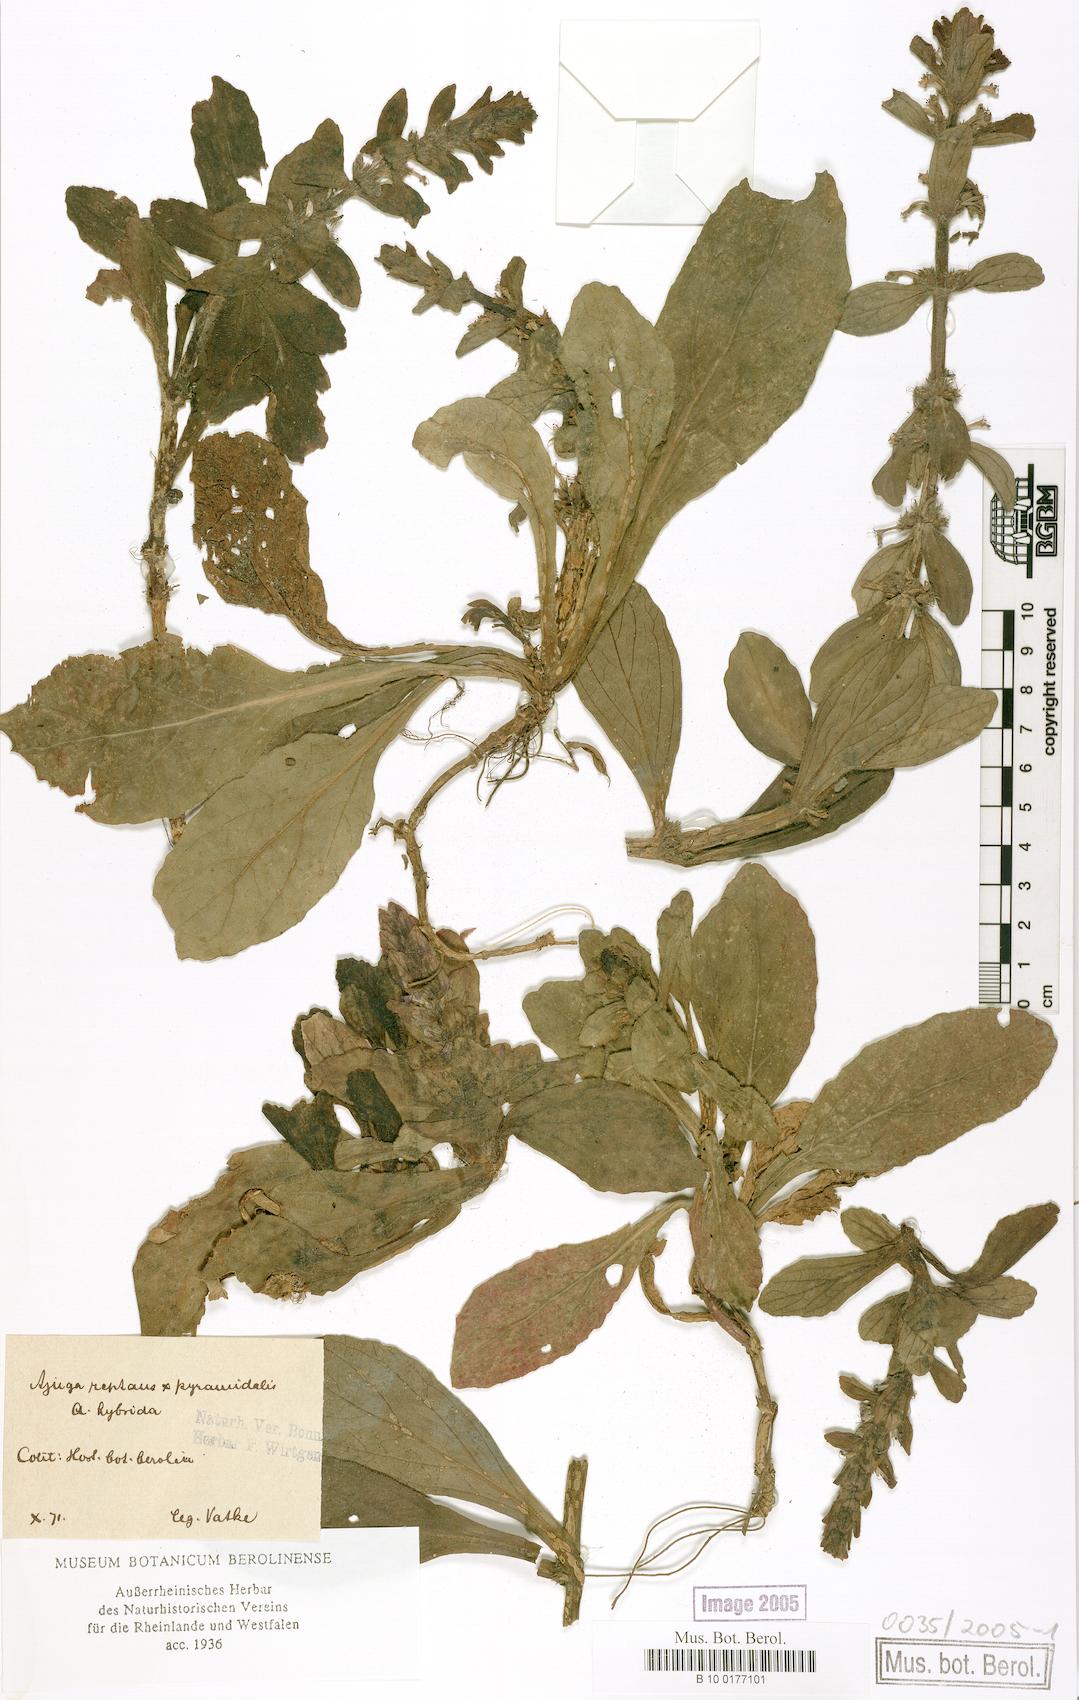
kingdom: Plantae
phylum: Tracheophyta
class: Magnoliopsida
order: Lamiales
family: Lamiaceae
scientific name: Lamiaceae
